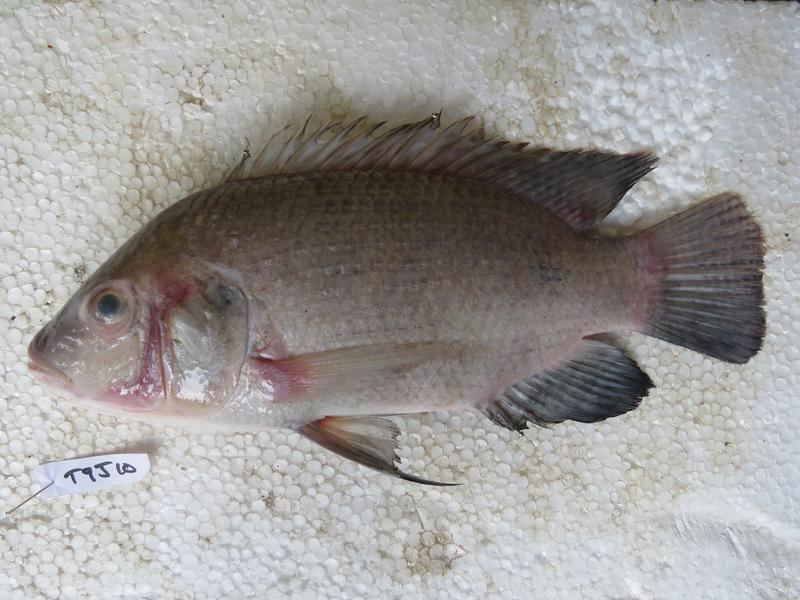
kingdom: Animalia
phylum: Chordata
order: Perciformes
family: Cichlidae
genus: Oreochromis
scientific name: Oreochromis urolepis
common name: Wami tilapia
